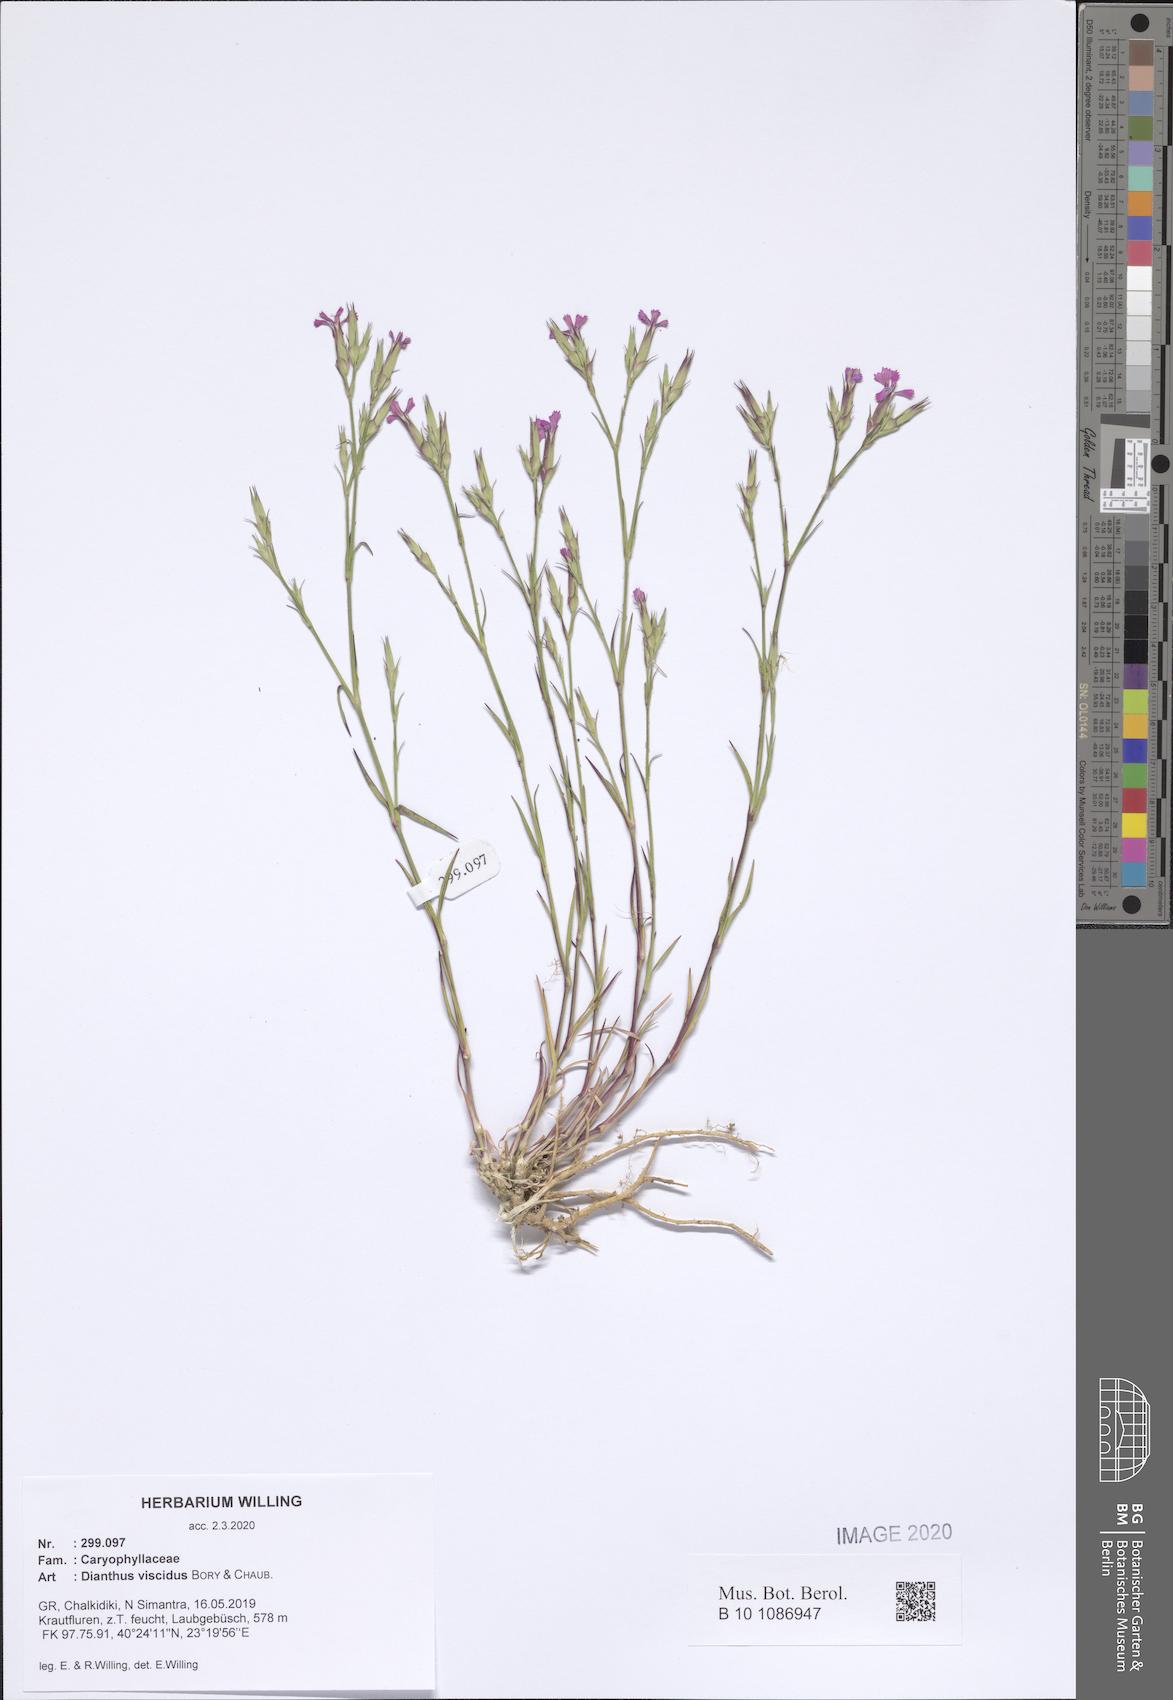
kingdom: Plantae
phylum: Tracheophyta
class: Magnoliopsida
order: Caryophyllales
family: Caryophyllaceae
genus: Dianthus
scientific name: Dianthus viscidus
